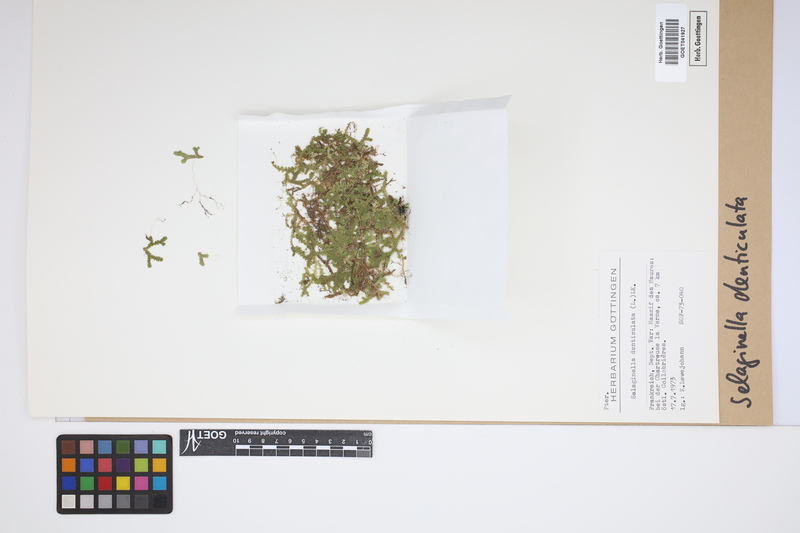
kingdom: Plantae
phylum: Tracheophyta
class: Lycopodiopsida
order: Selaginellales
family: Selaginellaceae
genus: Selaginella
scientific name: Selaginella denticulata
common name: Toothed-leaved clubmoss
